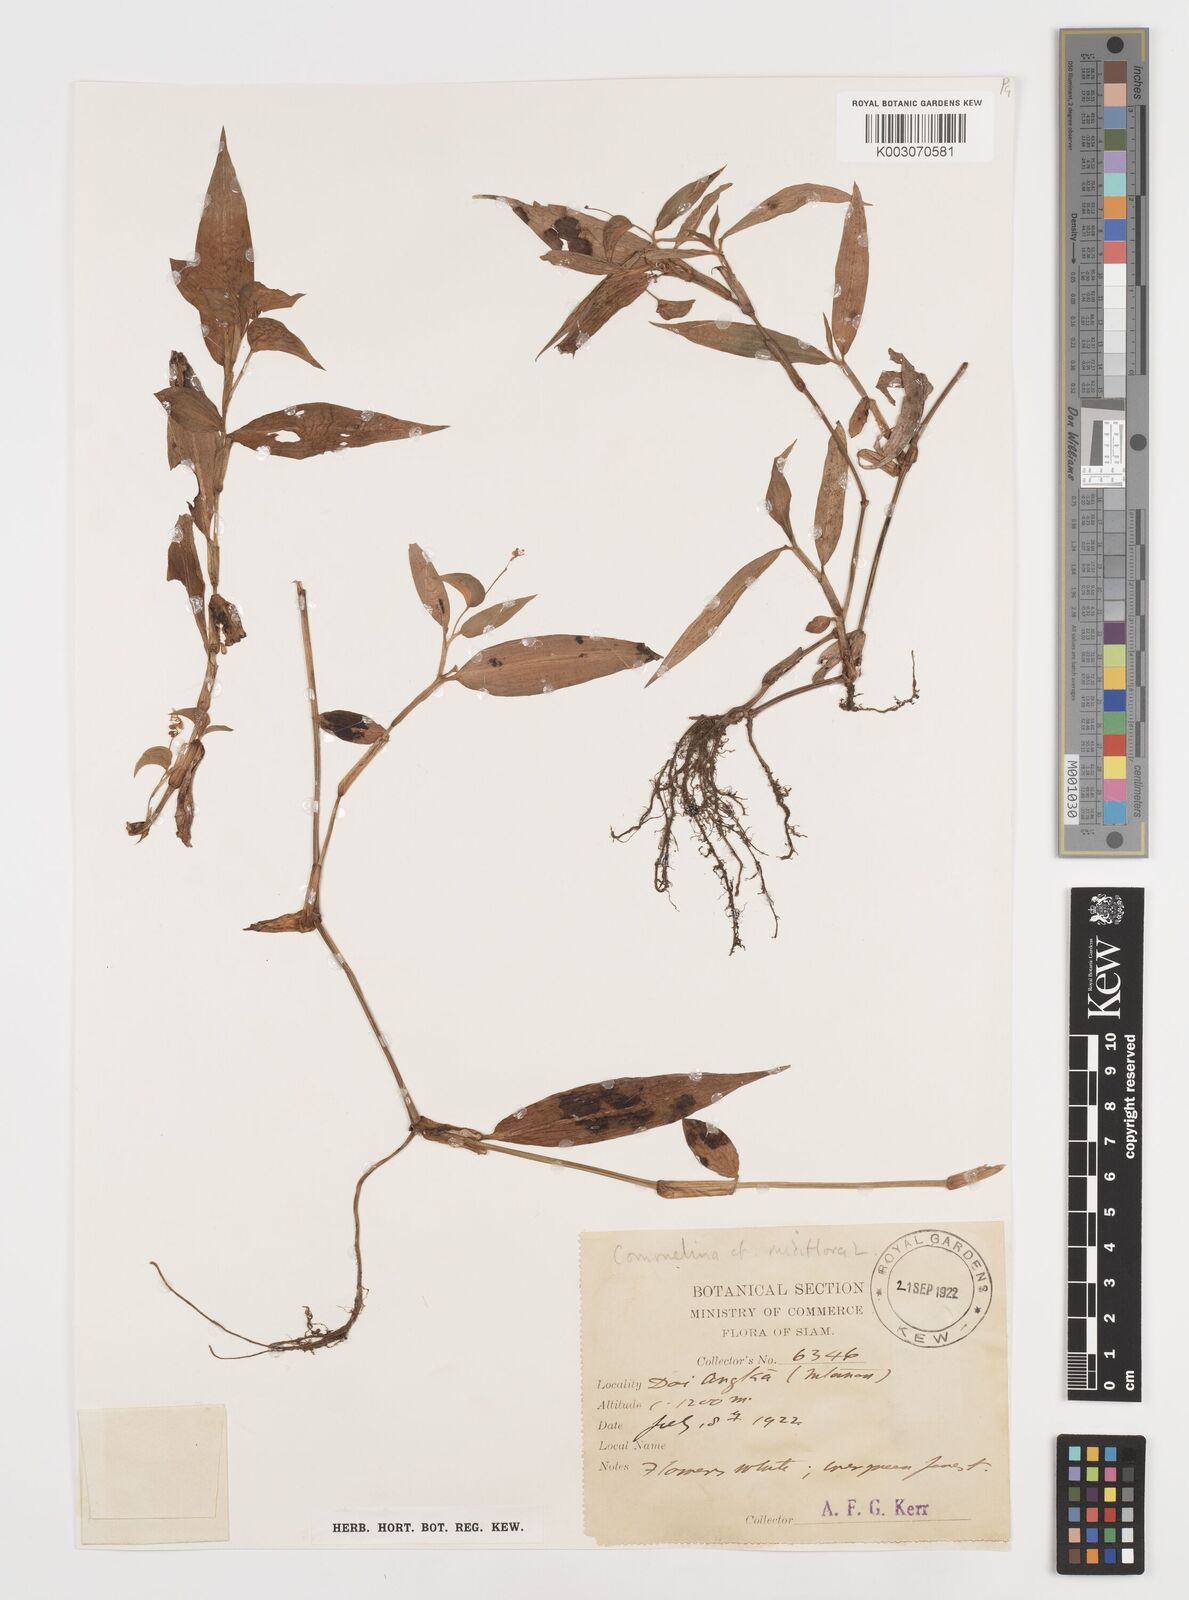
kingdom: Plantae
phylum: Tracheophyta
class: Liliopsida
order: Commelinales
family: Commelinaceae
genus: Commelina
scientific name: Commelina clavata
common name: Willow leaved dayflower
